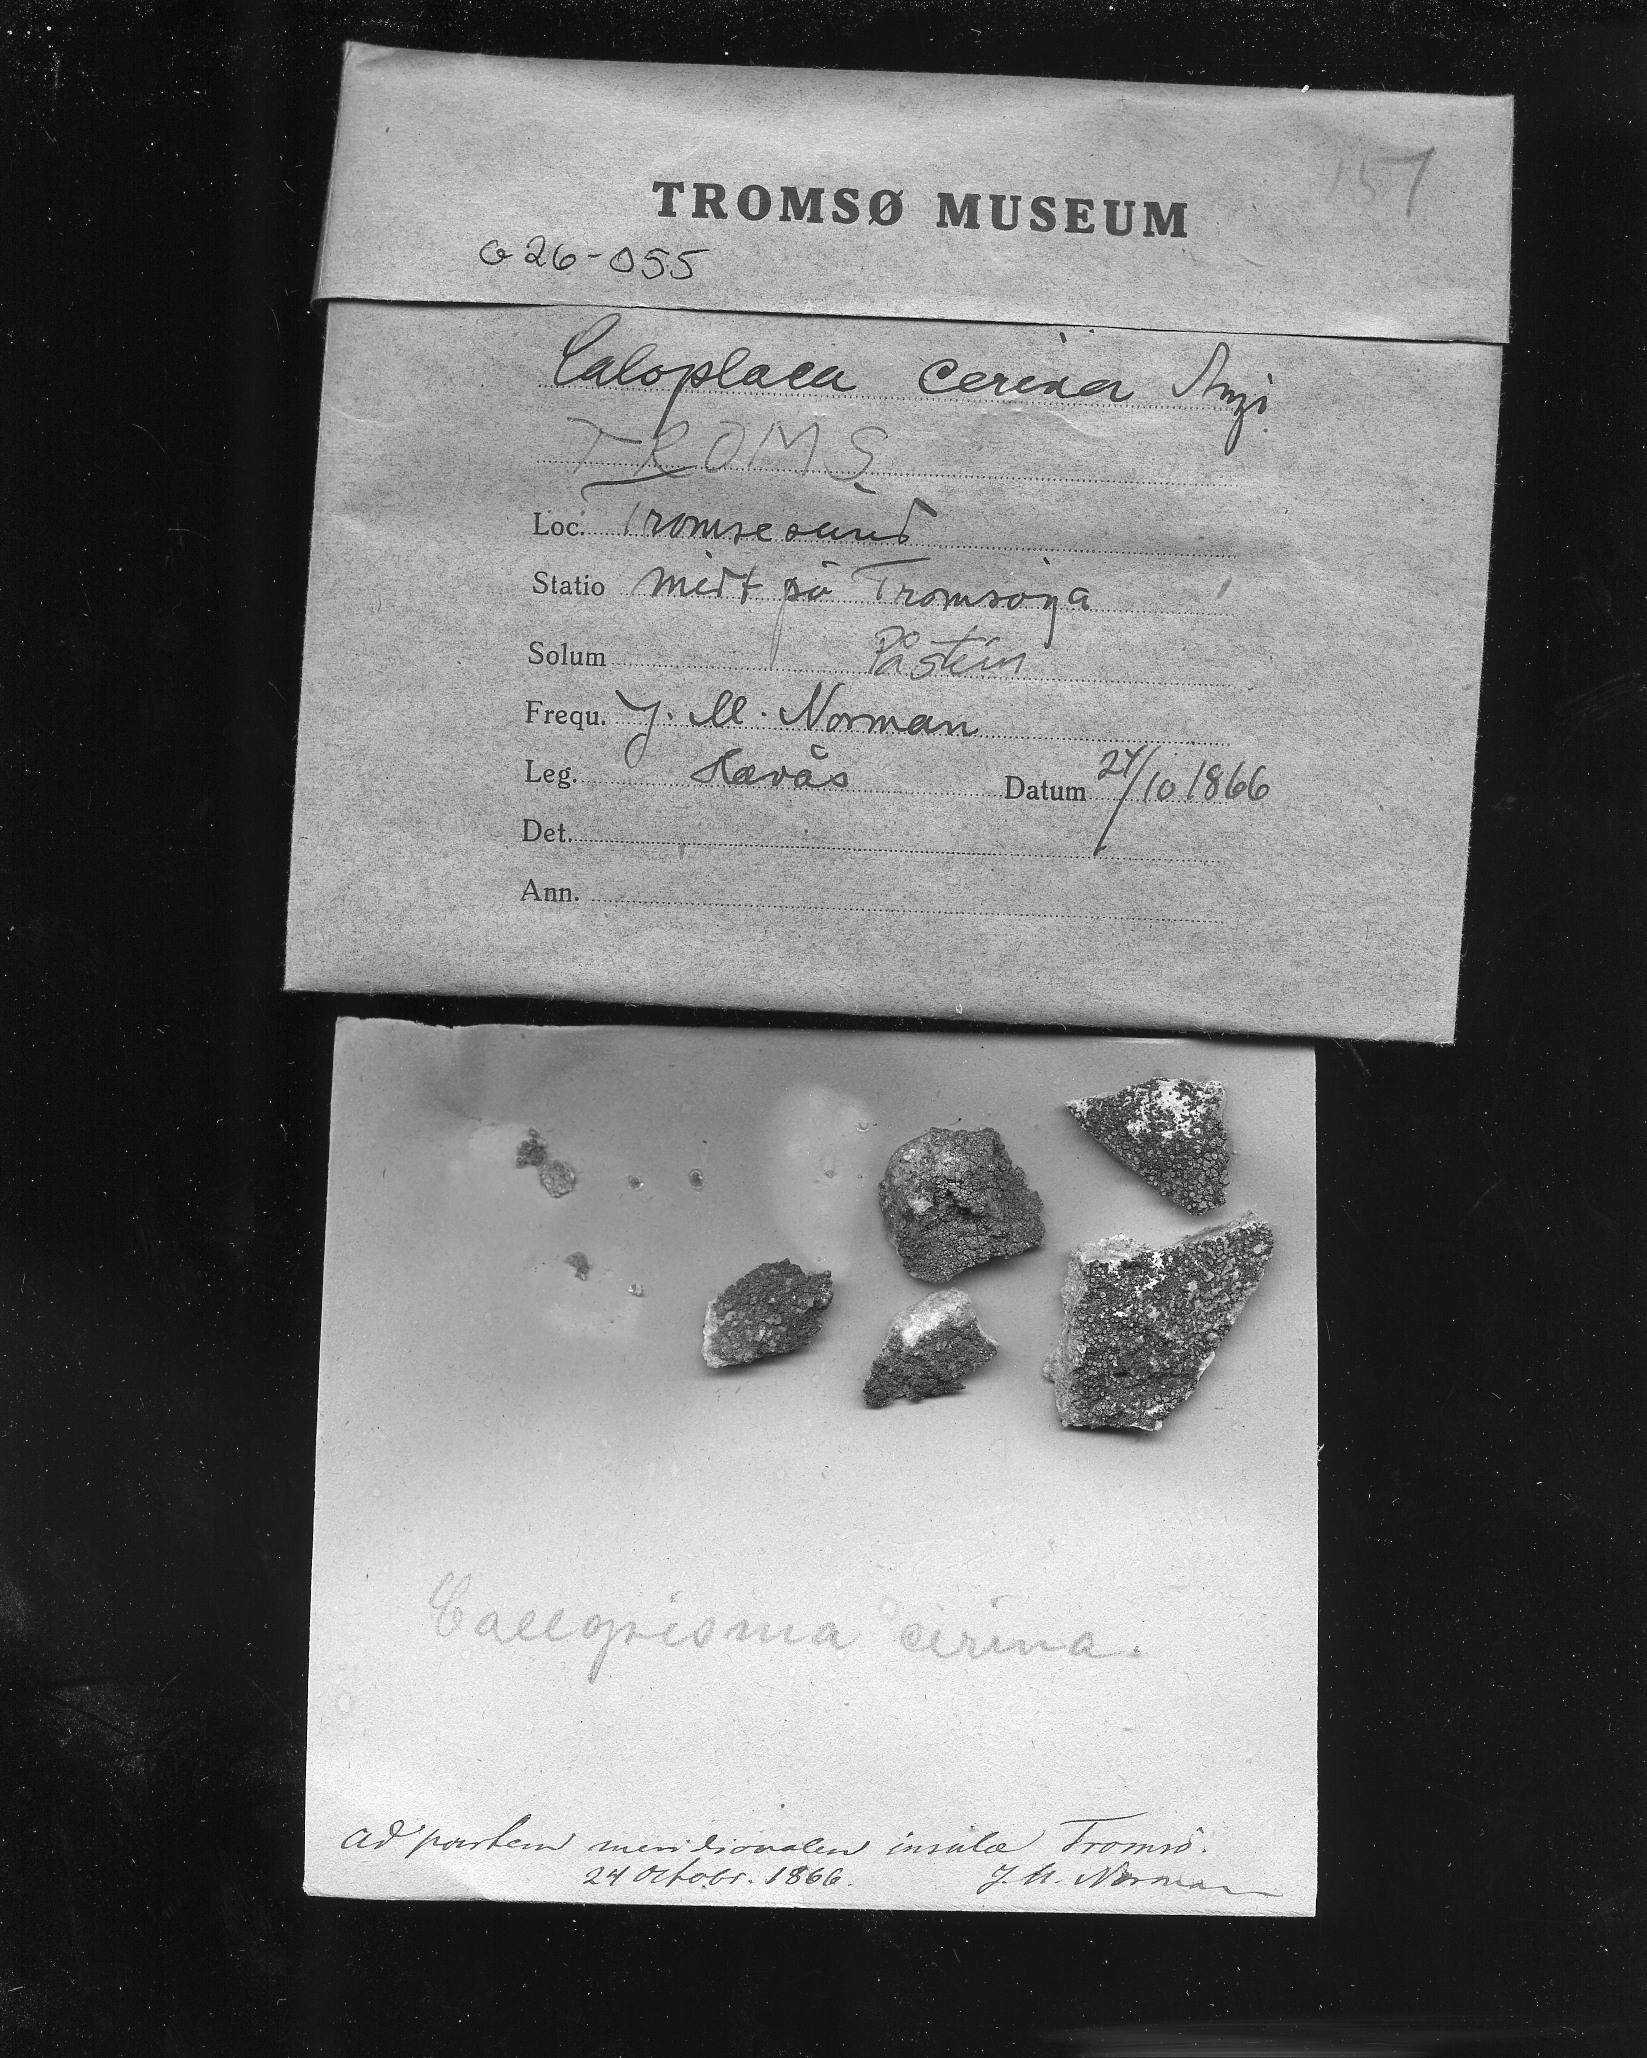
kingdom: Fungi
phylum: Ascomycota
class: Lecanoromycetes
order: Teloschistales
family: Teloschistaceae
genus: Caloplaca
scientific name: Caloplaca cerina
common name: Gray-rimmed firedot lichen
